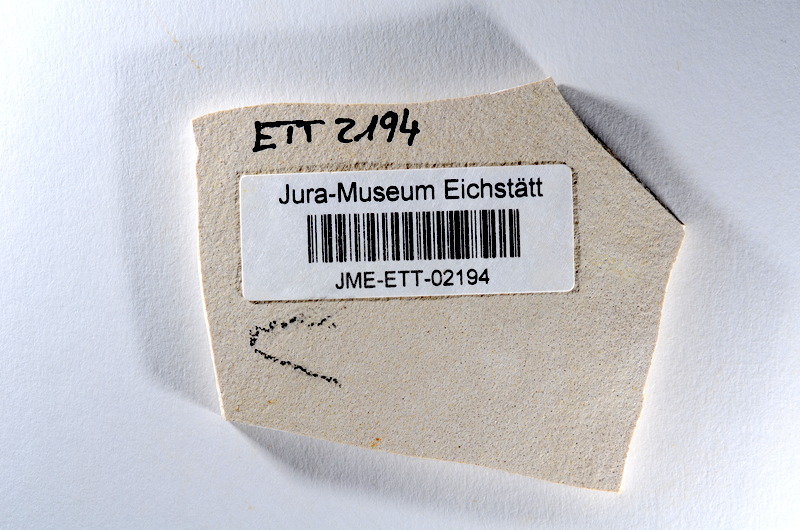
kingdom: Animalia
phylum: Chordata
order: Salmoniformes
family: Orthogonikleithridae
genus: Orthogonikleithrus
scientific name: Orthogonikleithrus hoelli
